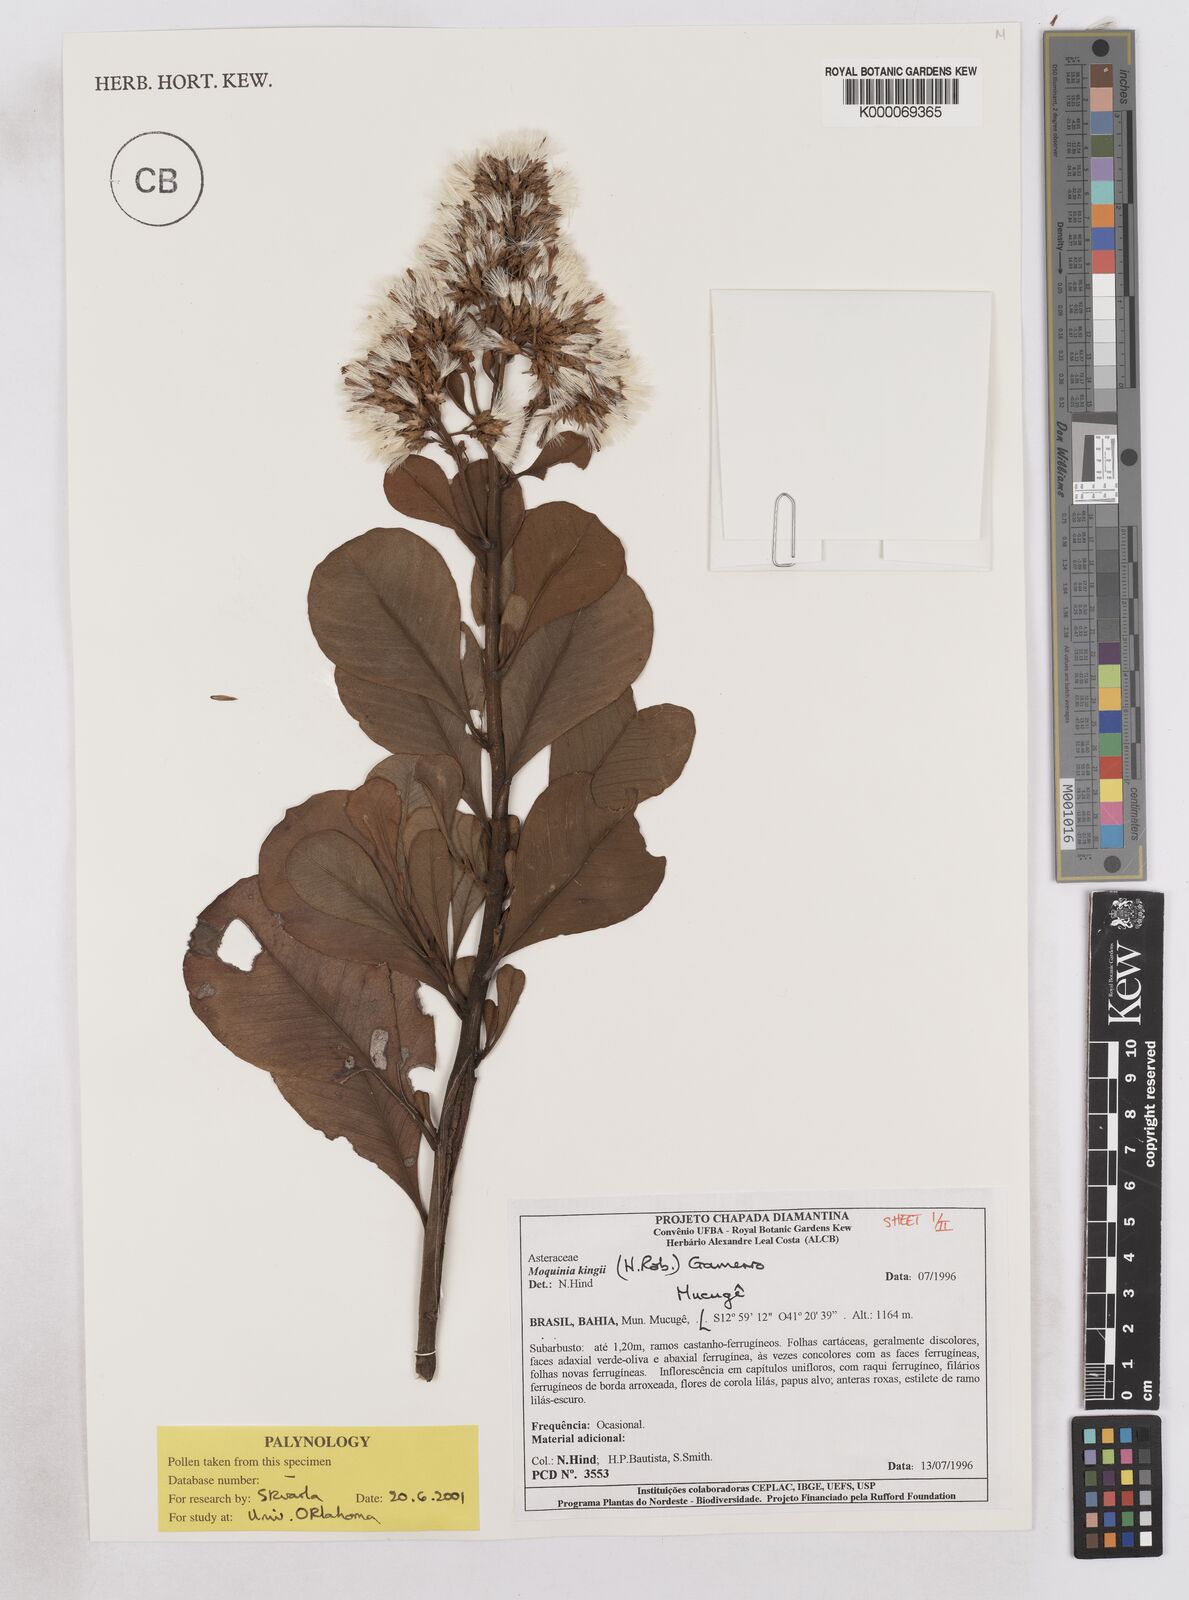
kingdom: Plantae
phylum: Tracheophyta
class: Magnoliopsida
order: Asterales
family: Asteraceae
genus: Pseudostifftia
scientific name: Pseudostifftia kingii
